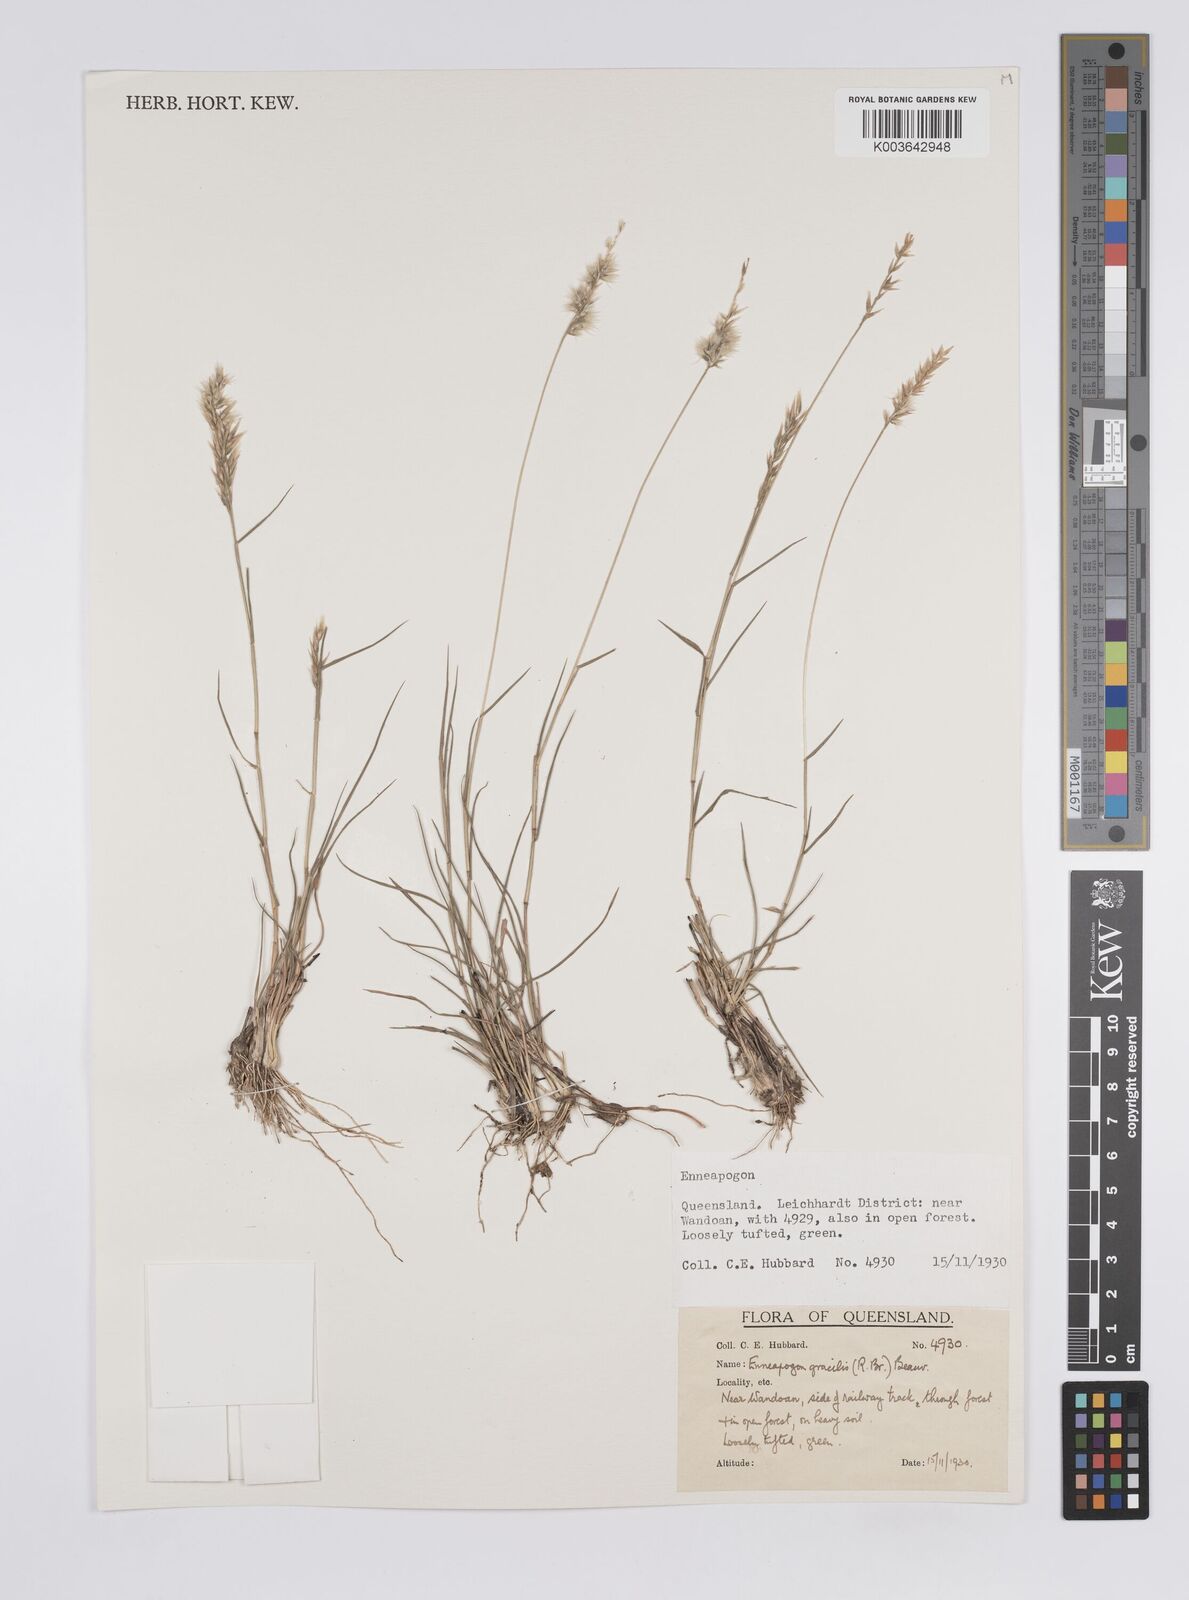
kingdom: Plantae
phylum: Tracheophyta
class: Liliopsida
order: Poales
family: Poaceae
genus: Enneapogon
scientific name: Enneapogon gracilis
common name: Slender bottle-washers
